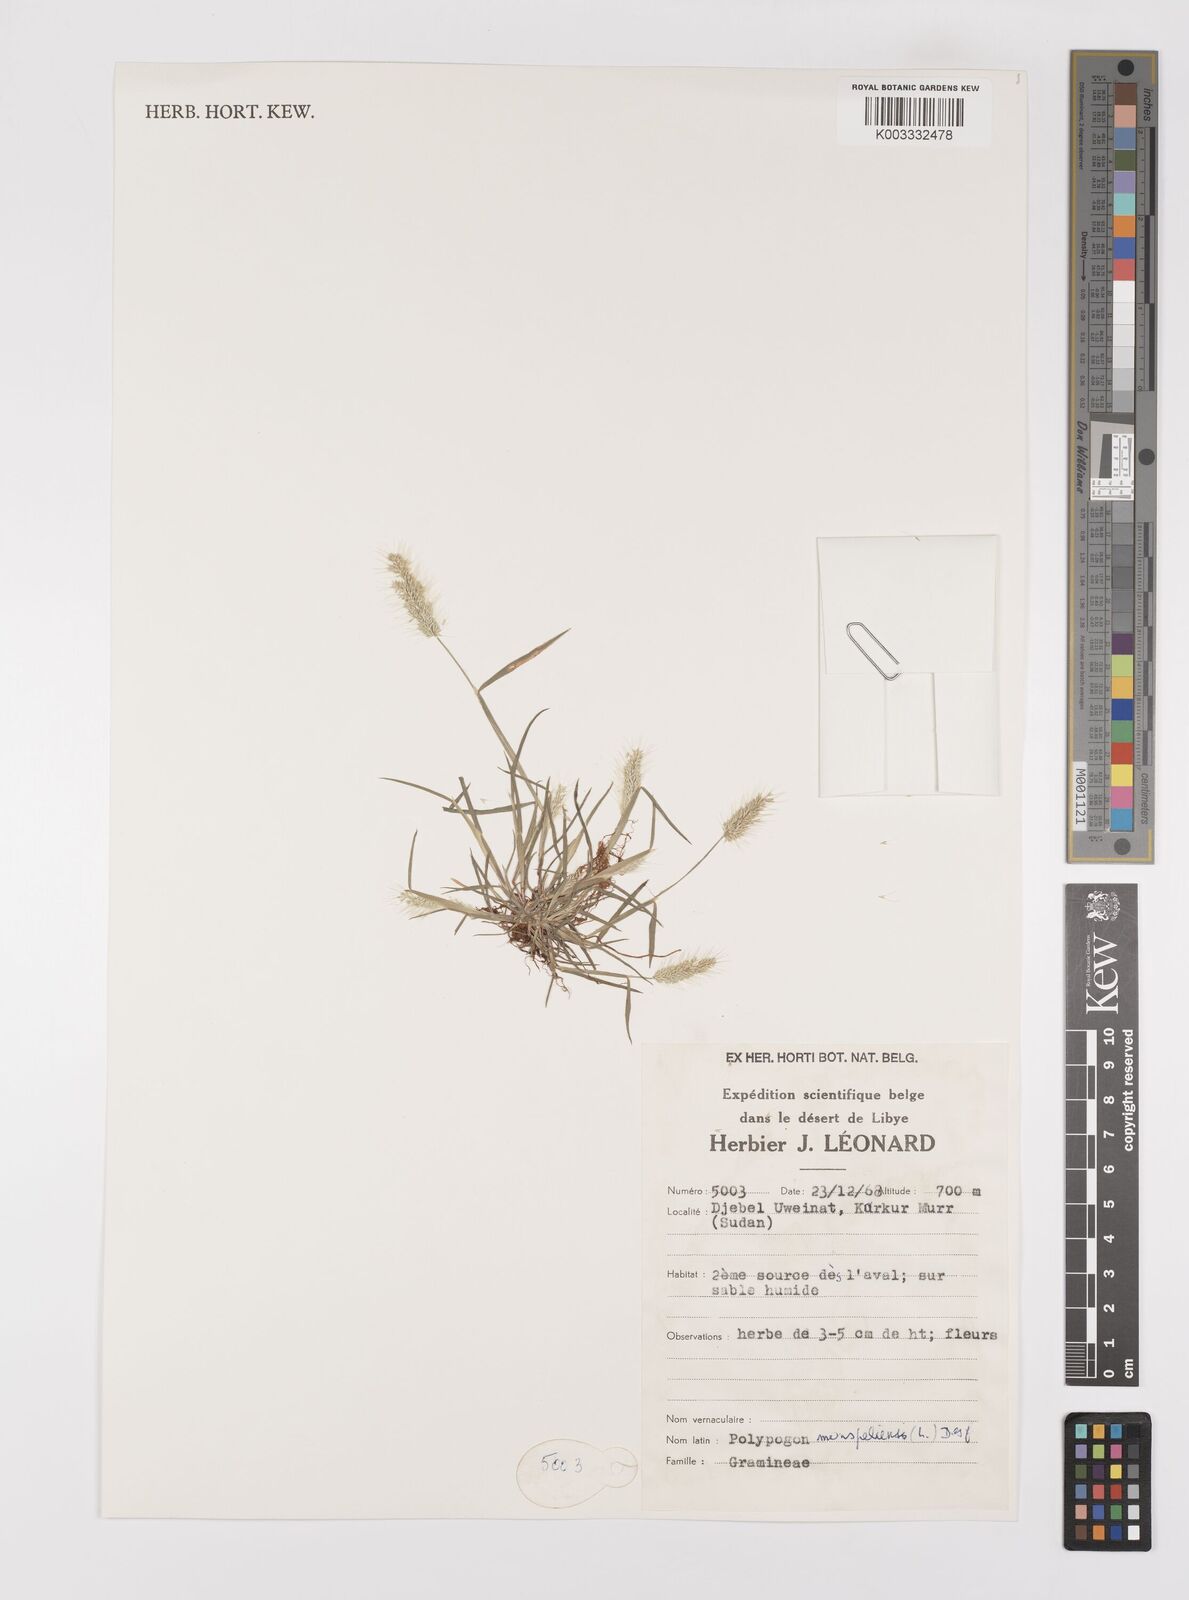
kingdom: Plantae
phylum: Tracheophyta
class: Liliopsida
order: Poales
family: Poaceae
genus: Polypogon
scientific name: Polypogon monspeliensis
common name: Annual rabbitsfoot grass
